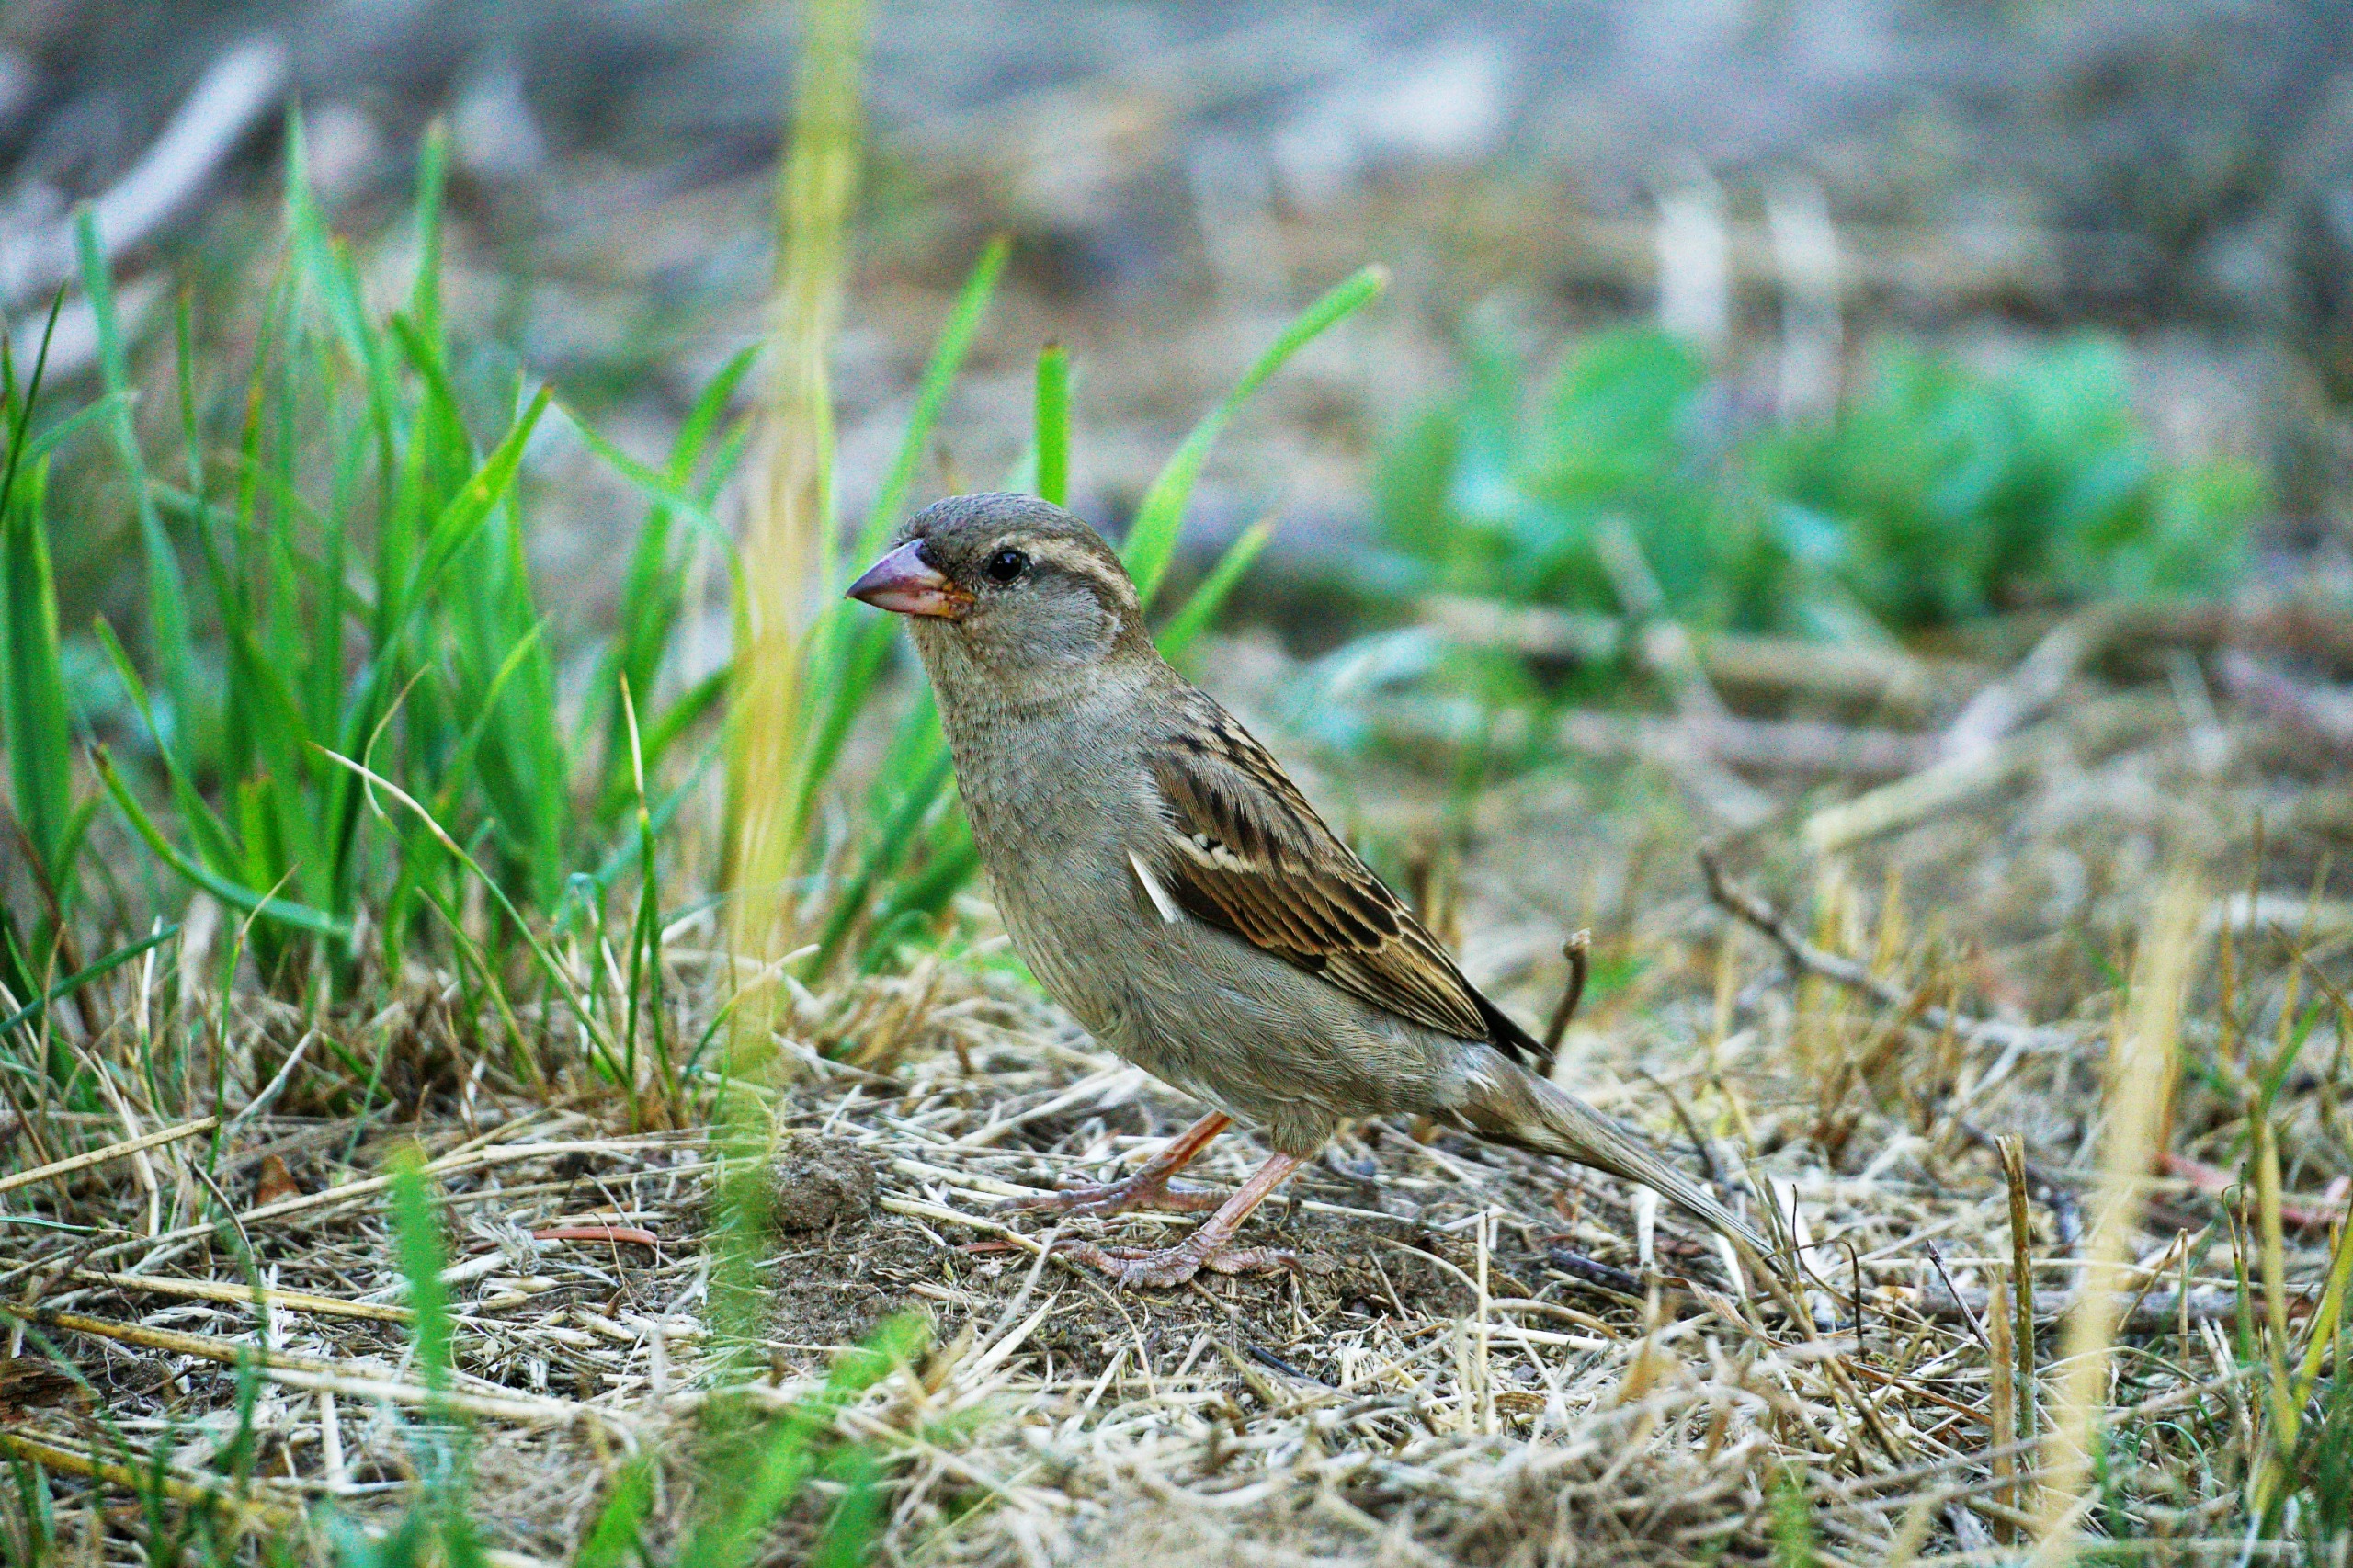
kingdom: Animalia
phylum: Chordata
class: Aves
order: Passeriformes
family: Passeridae
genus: Passer
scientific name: Passer domesticus
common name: Gråspurv
